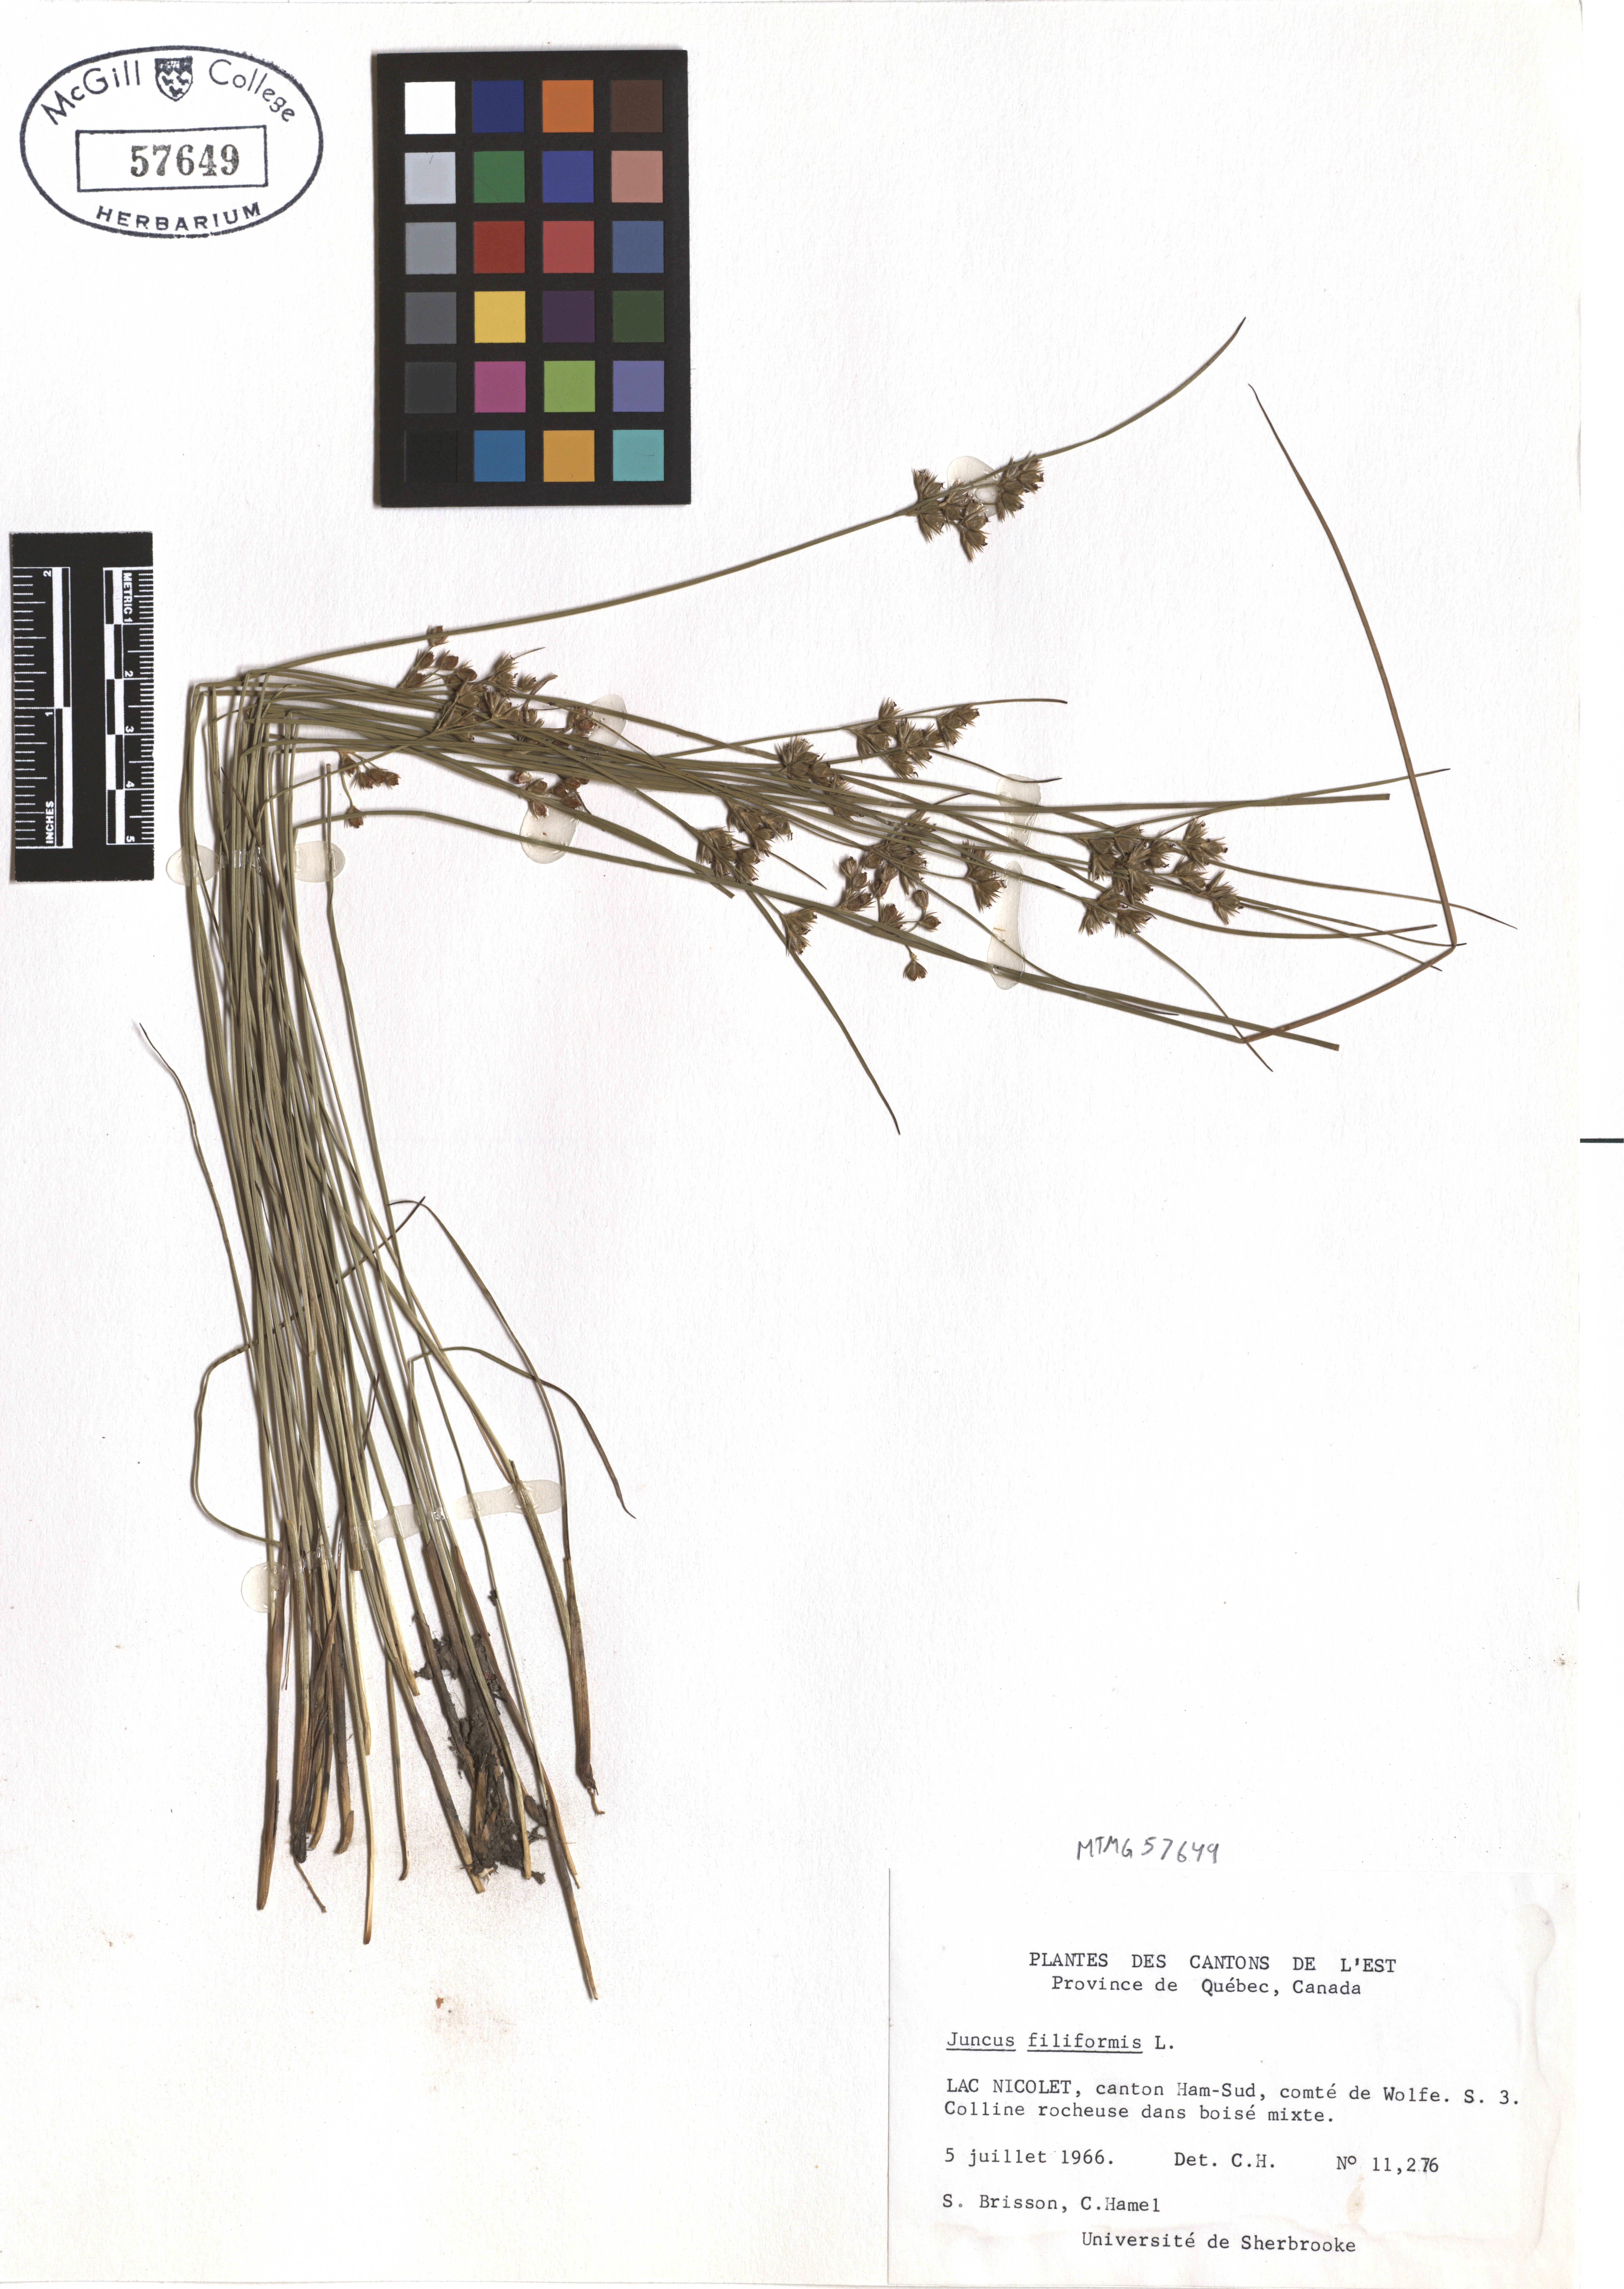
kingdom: Plantae
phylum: Tracheophyta
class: Liliopsida
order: Poales
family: Juncaceae
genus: Juncus
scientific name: Juncus filiformis
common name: Thread rush
